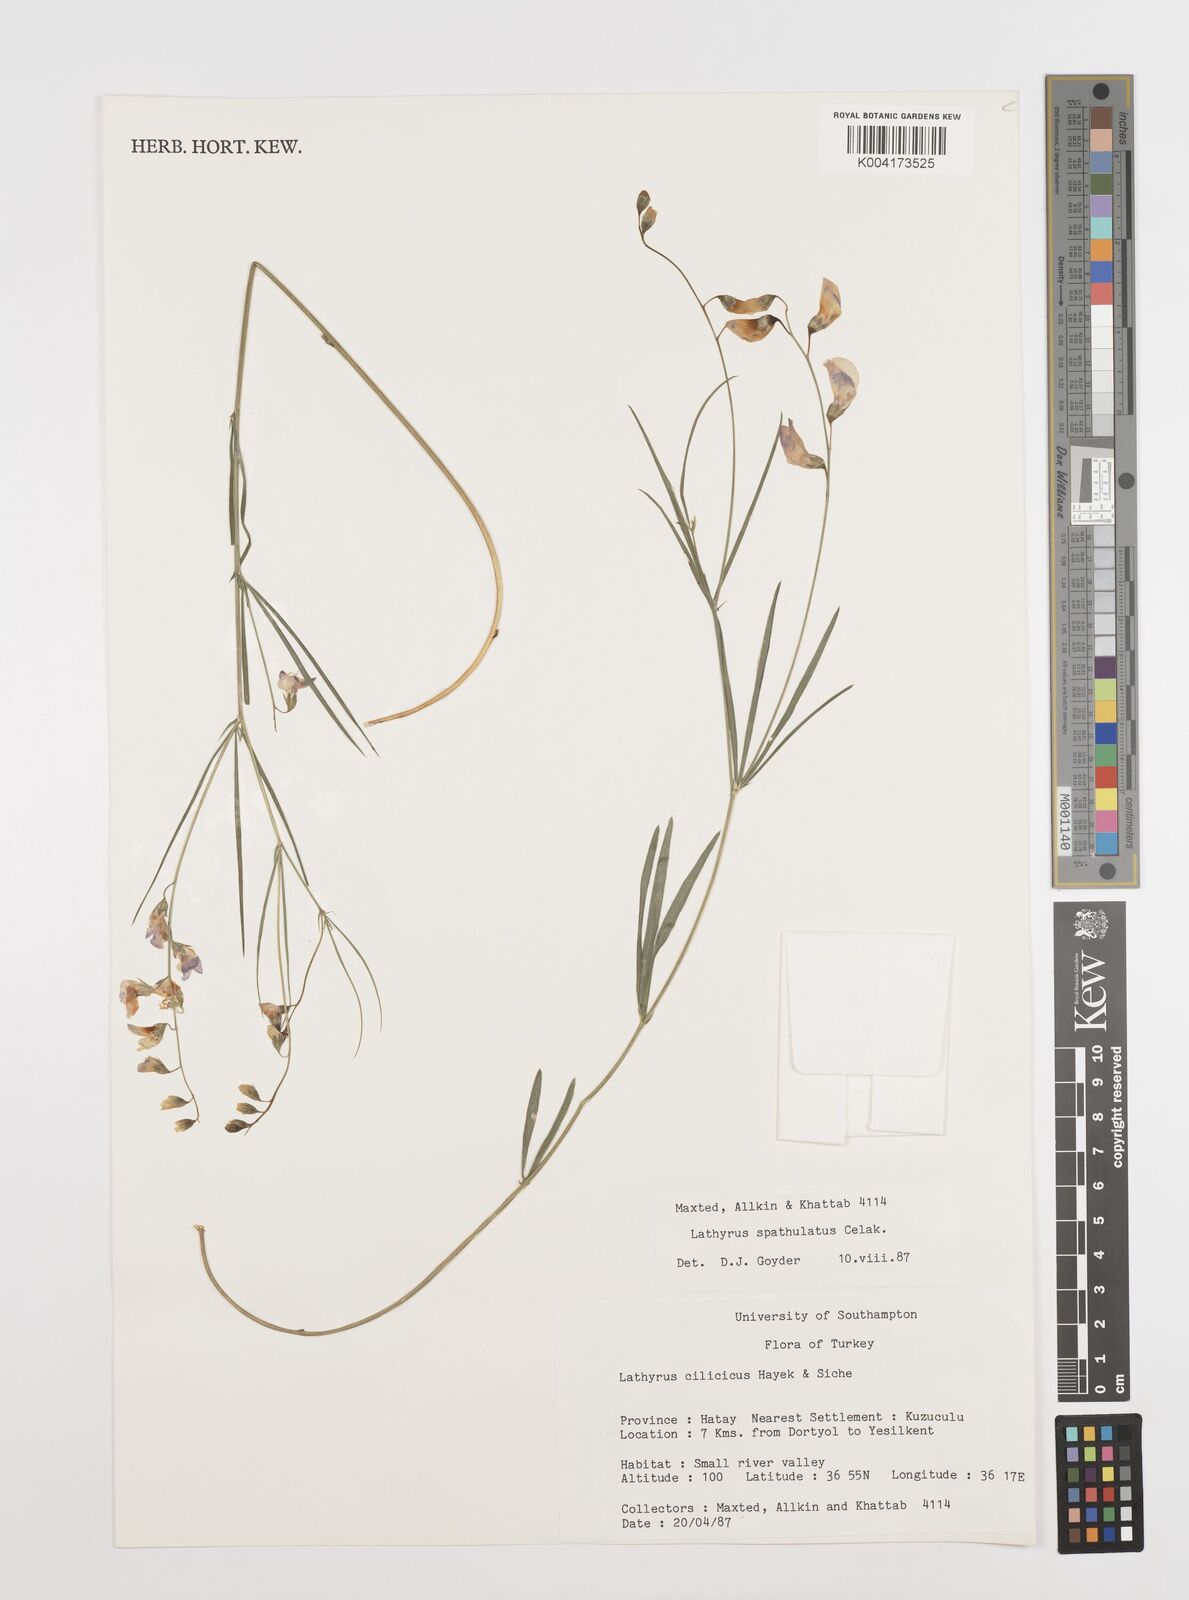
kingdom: Plantae
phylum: Tracheophyta
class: Magnoliopsida
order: Fabales
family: Fabaceae
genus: Lathyrus
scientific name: Lathyrus spathulatus
